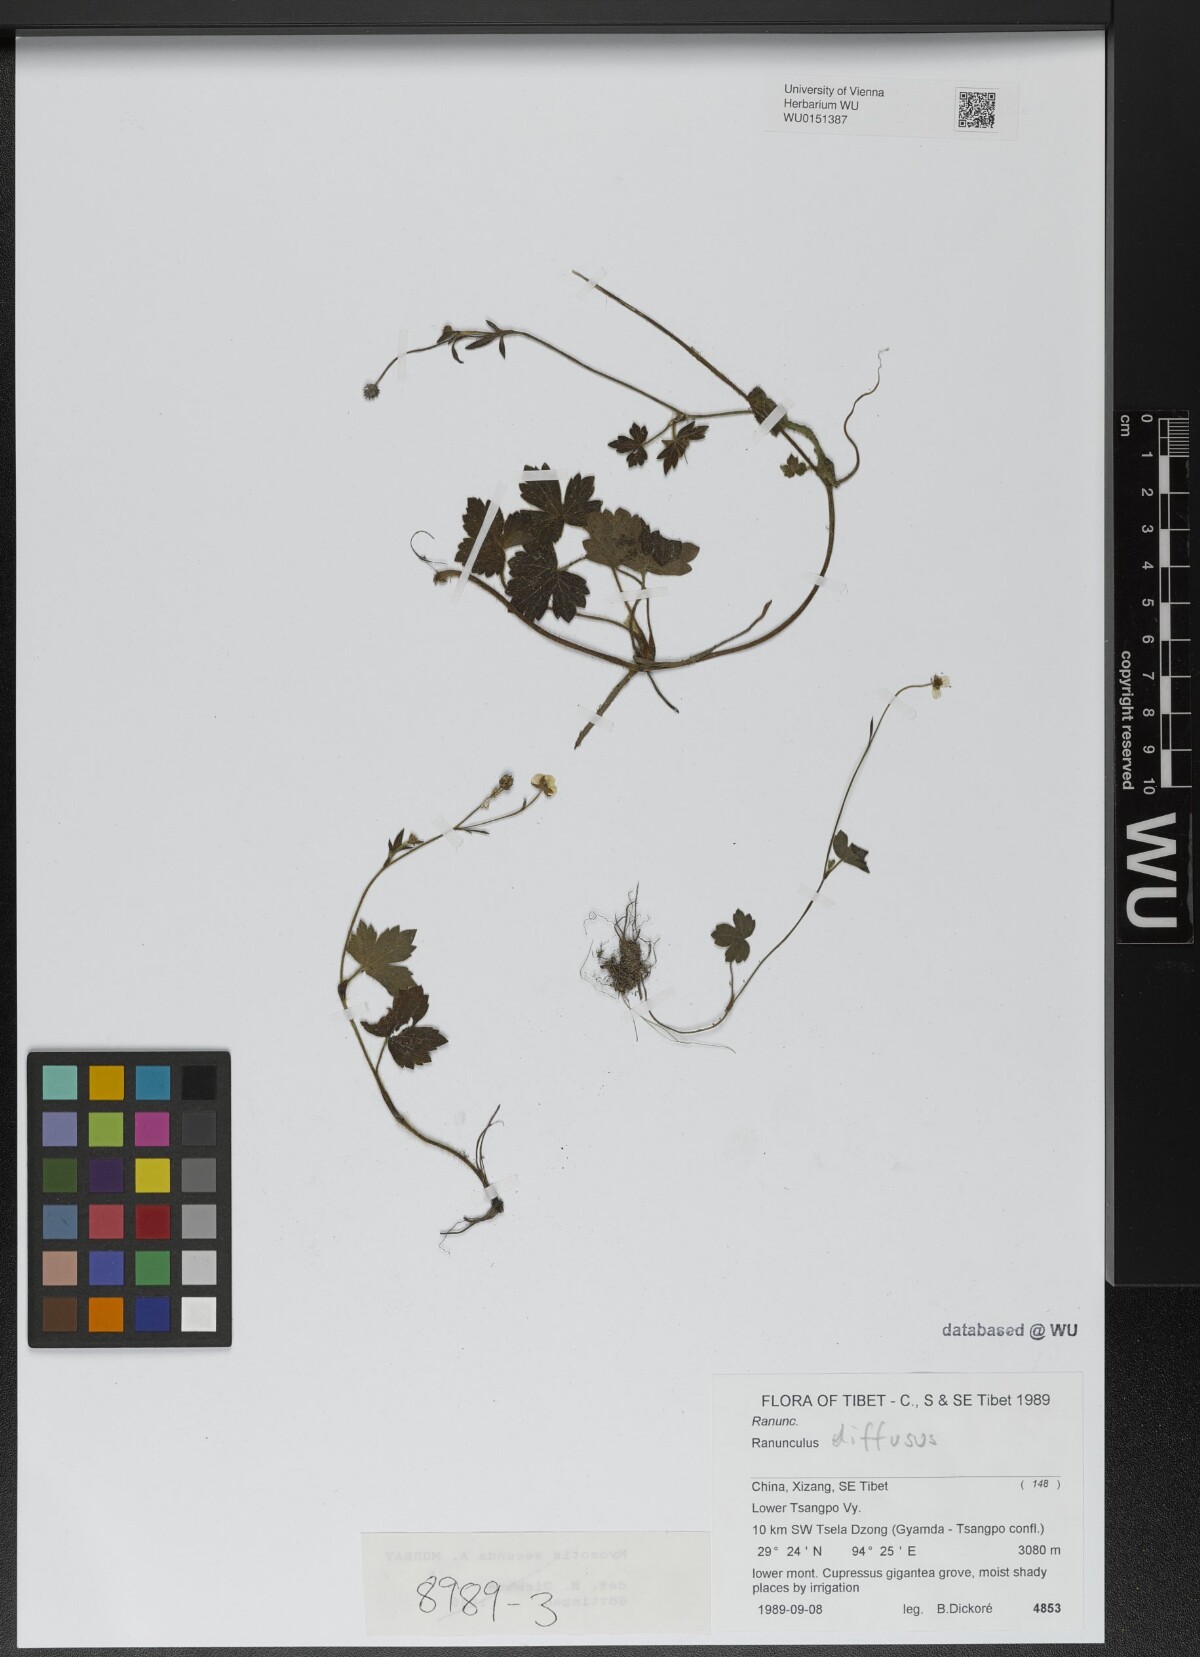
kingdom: Plantae
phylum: Tracheophyta
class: Magnoliopsida
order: Ranunculales
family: Ranunculaceae
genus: Ranunculus
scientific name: Ranunculus diffusus
